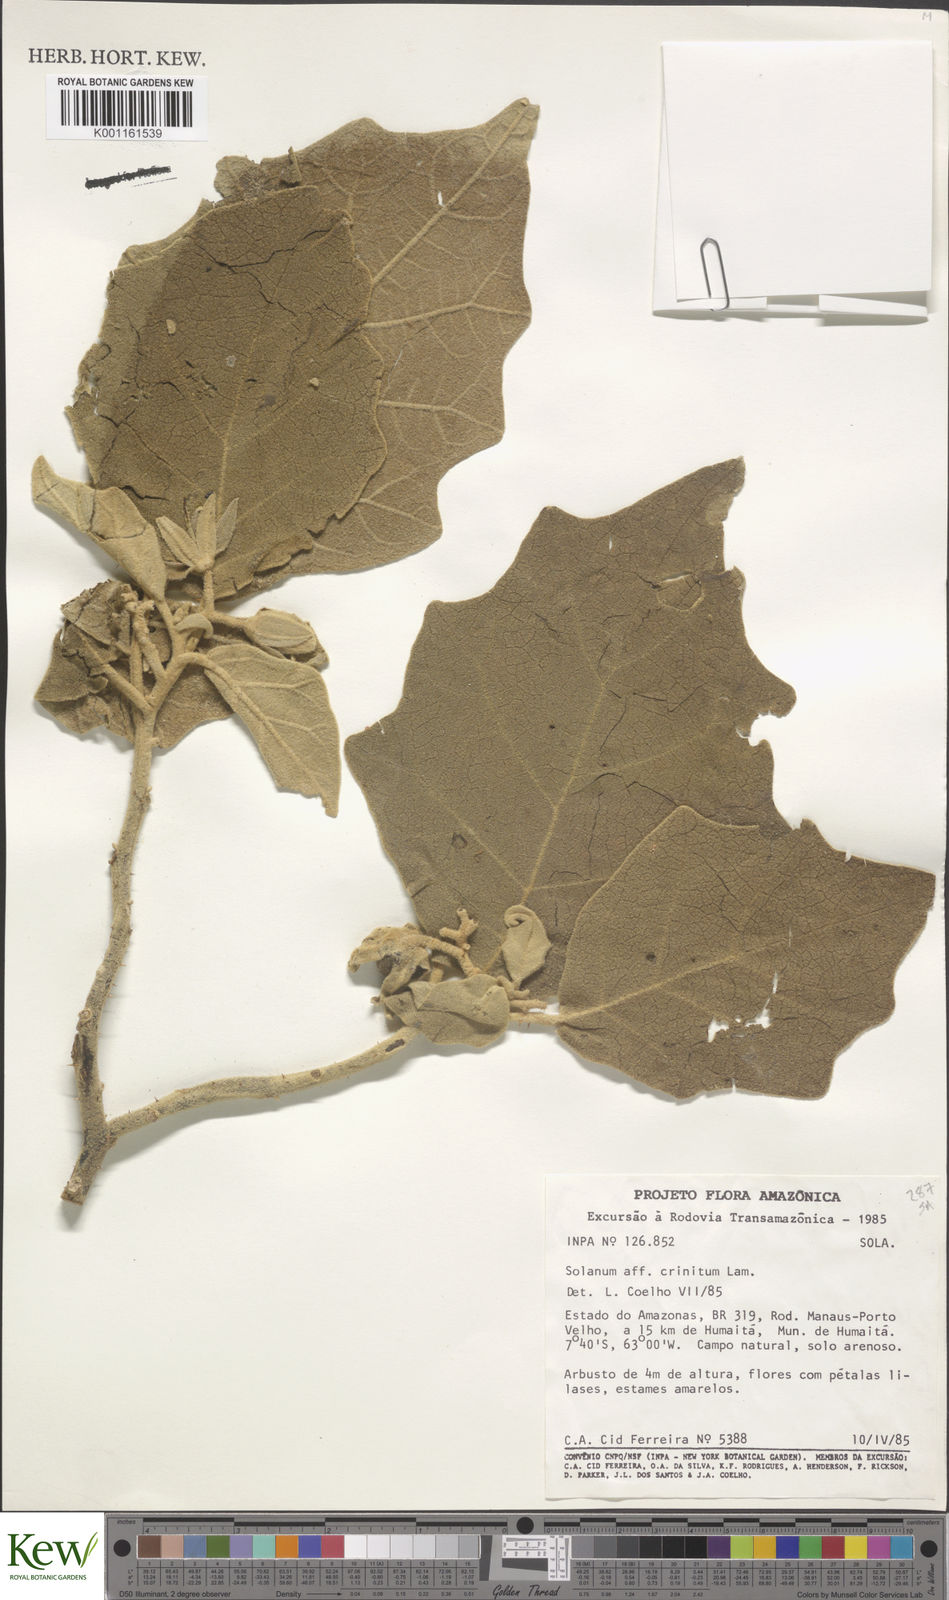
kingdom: Plantae
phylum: Tracheophyta
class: Magnoliopsida
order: Solanales
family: Solanaceae
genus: Solanum
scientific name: Solanum crinitum
